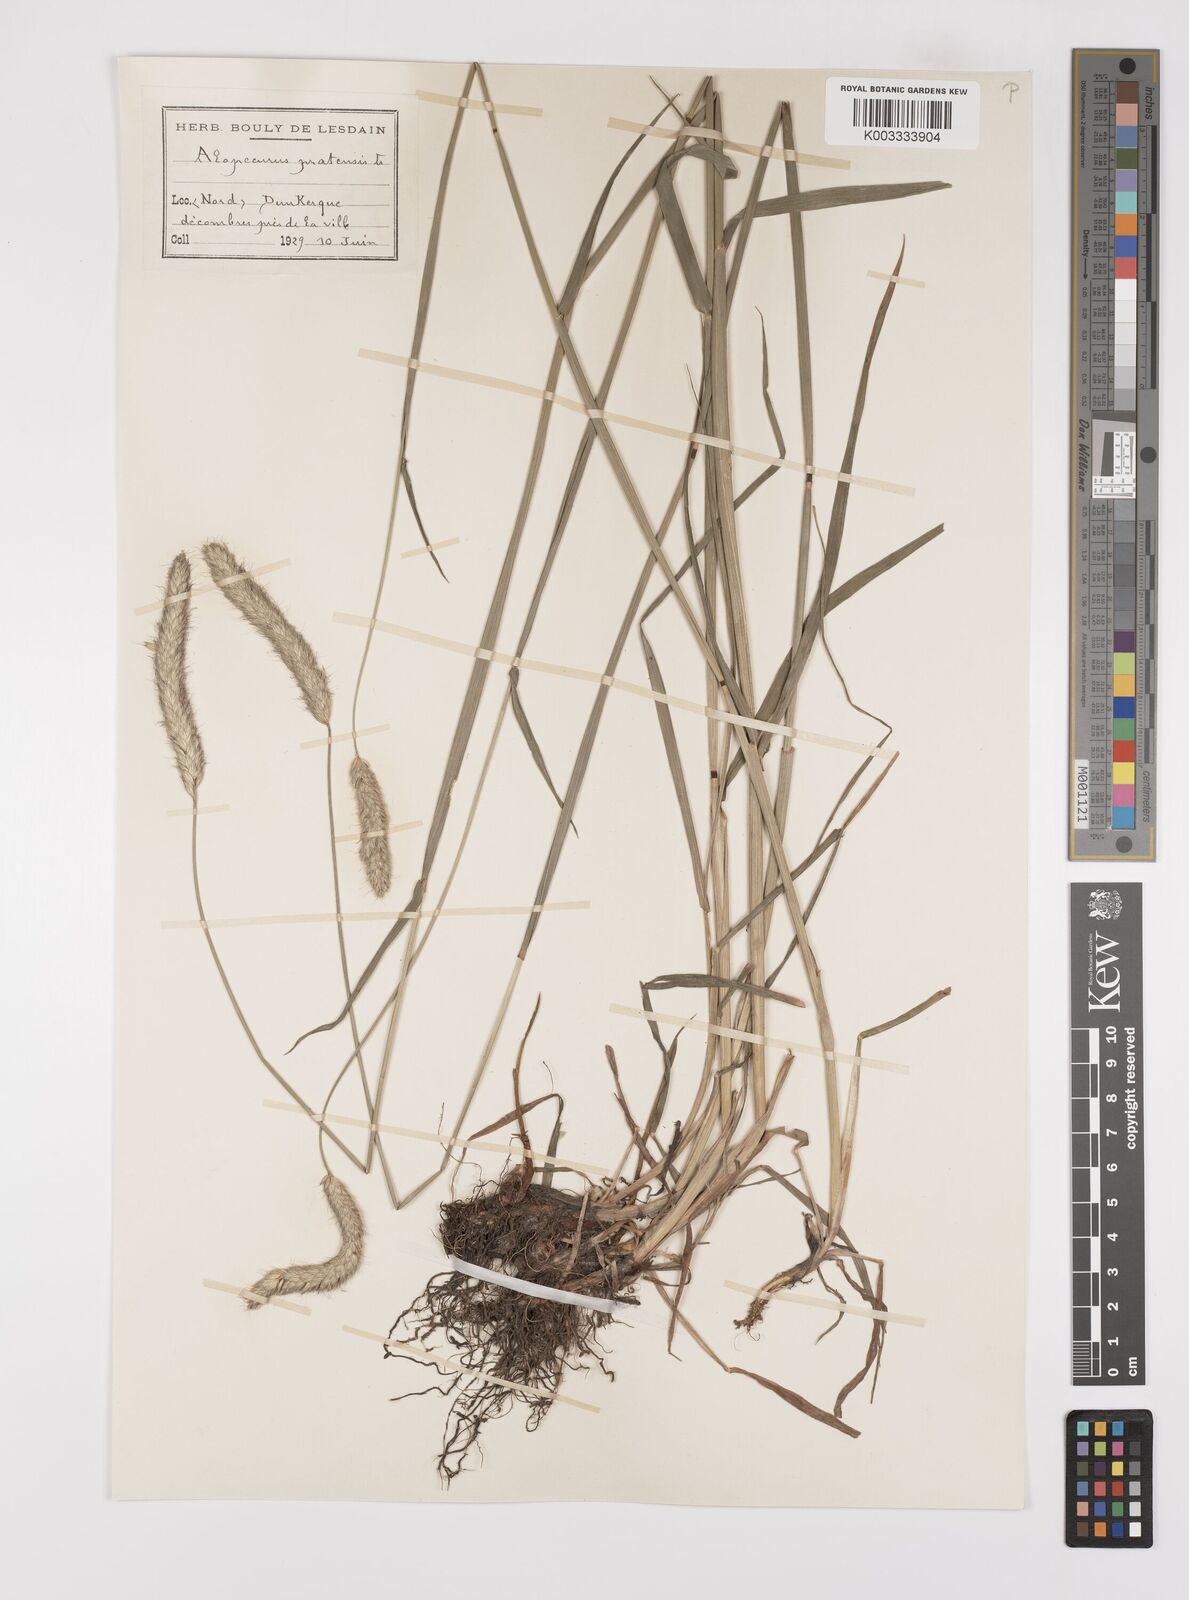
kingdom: Plantae
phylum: Tracheophyta
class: Liliopsida
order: Poales
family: Poaceae
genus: Alopecurus
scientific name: Alopecurus pratensis
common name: Meadow foxtail
